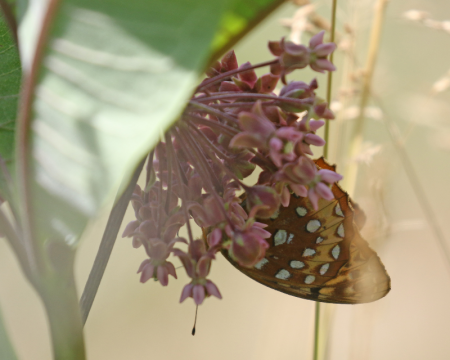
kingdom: Animalia
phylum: Arthropoda
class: Insecta
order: Lepidoptera
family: Nymphalidae
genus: Speyeria
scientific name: Speyeria cybele
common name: Great Spangled Fritillary
